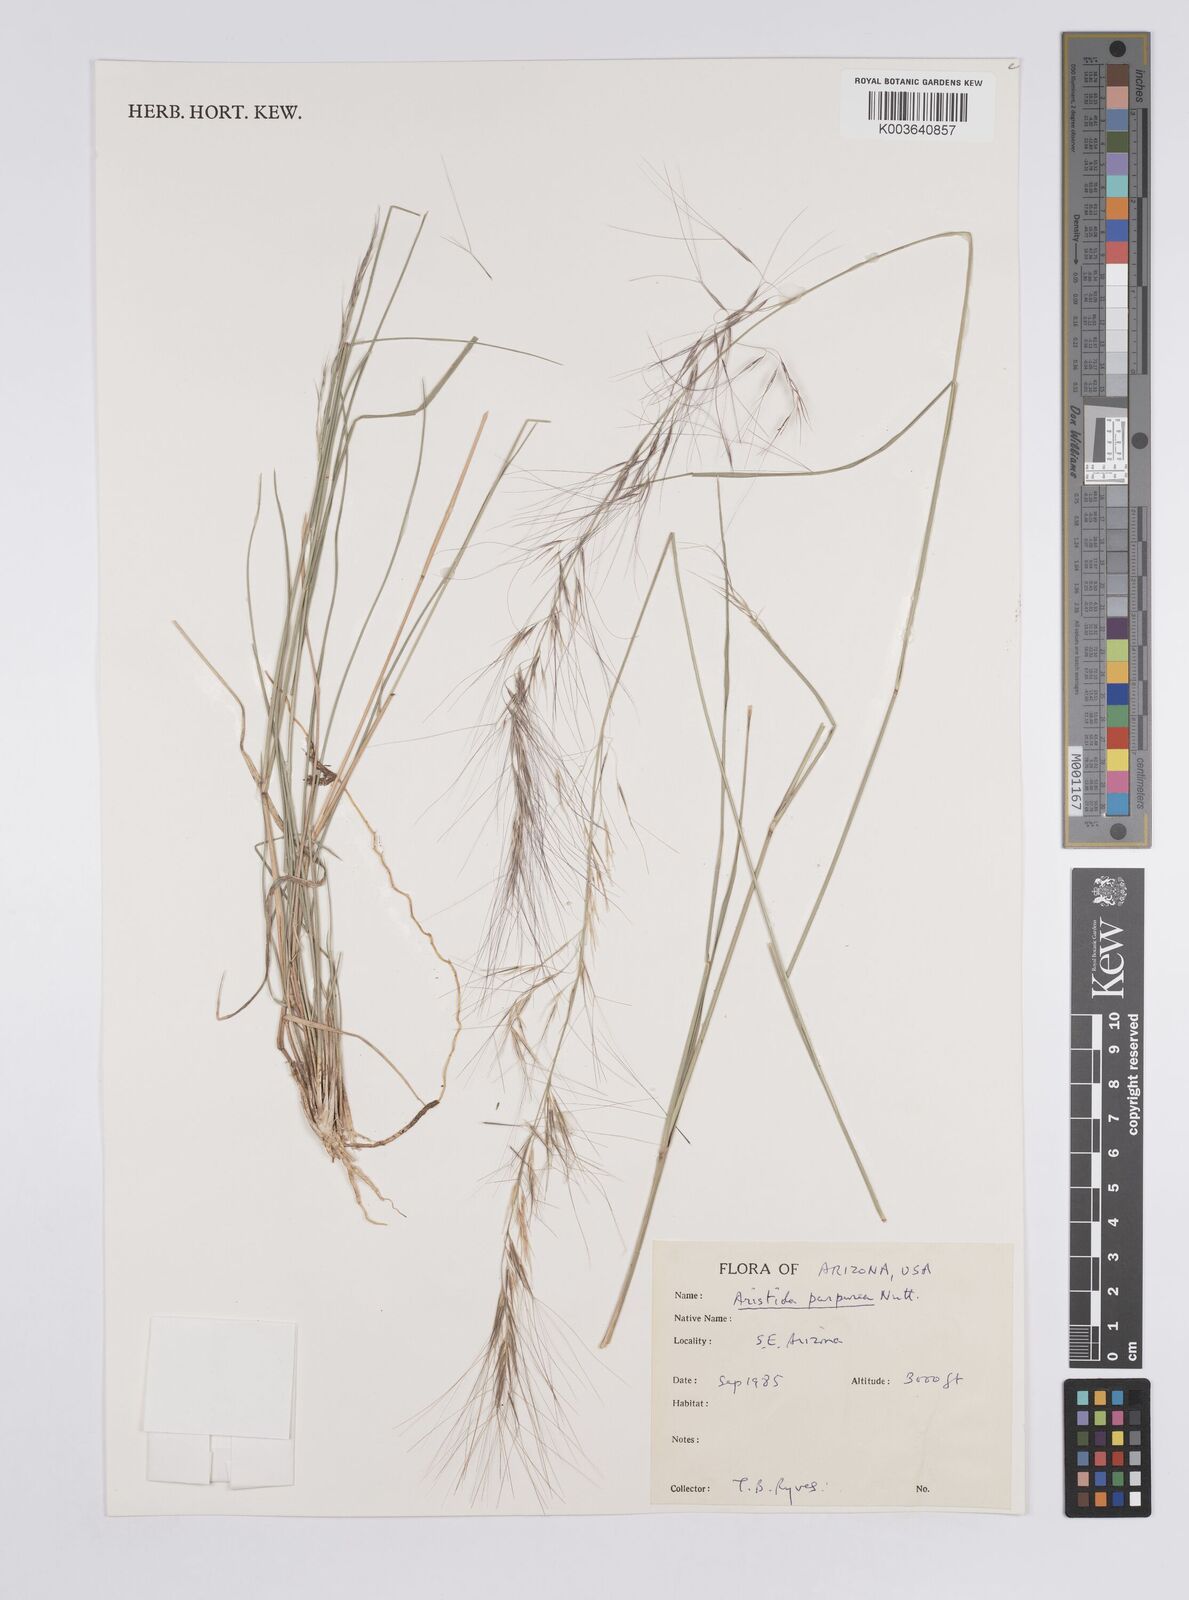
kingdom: Plantae
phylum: Tracheophyta
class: Liliopsida
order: Poales
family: Poaceae
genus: Aristida
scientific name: Aristida purpurea
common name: Purple threeawn
